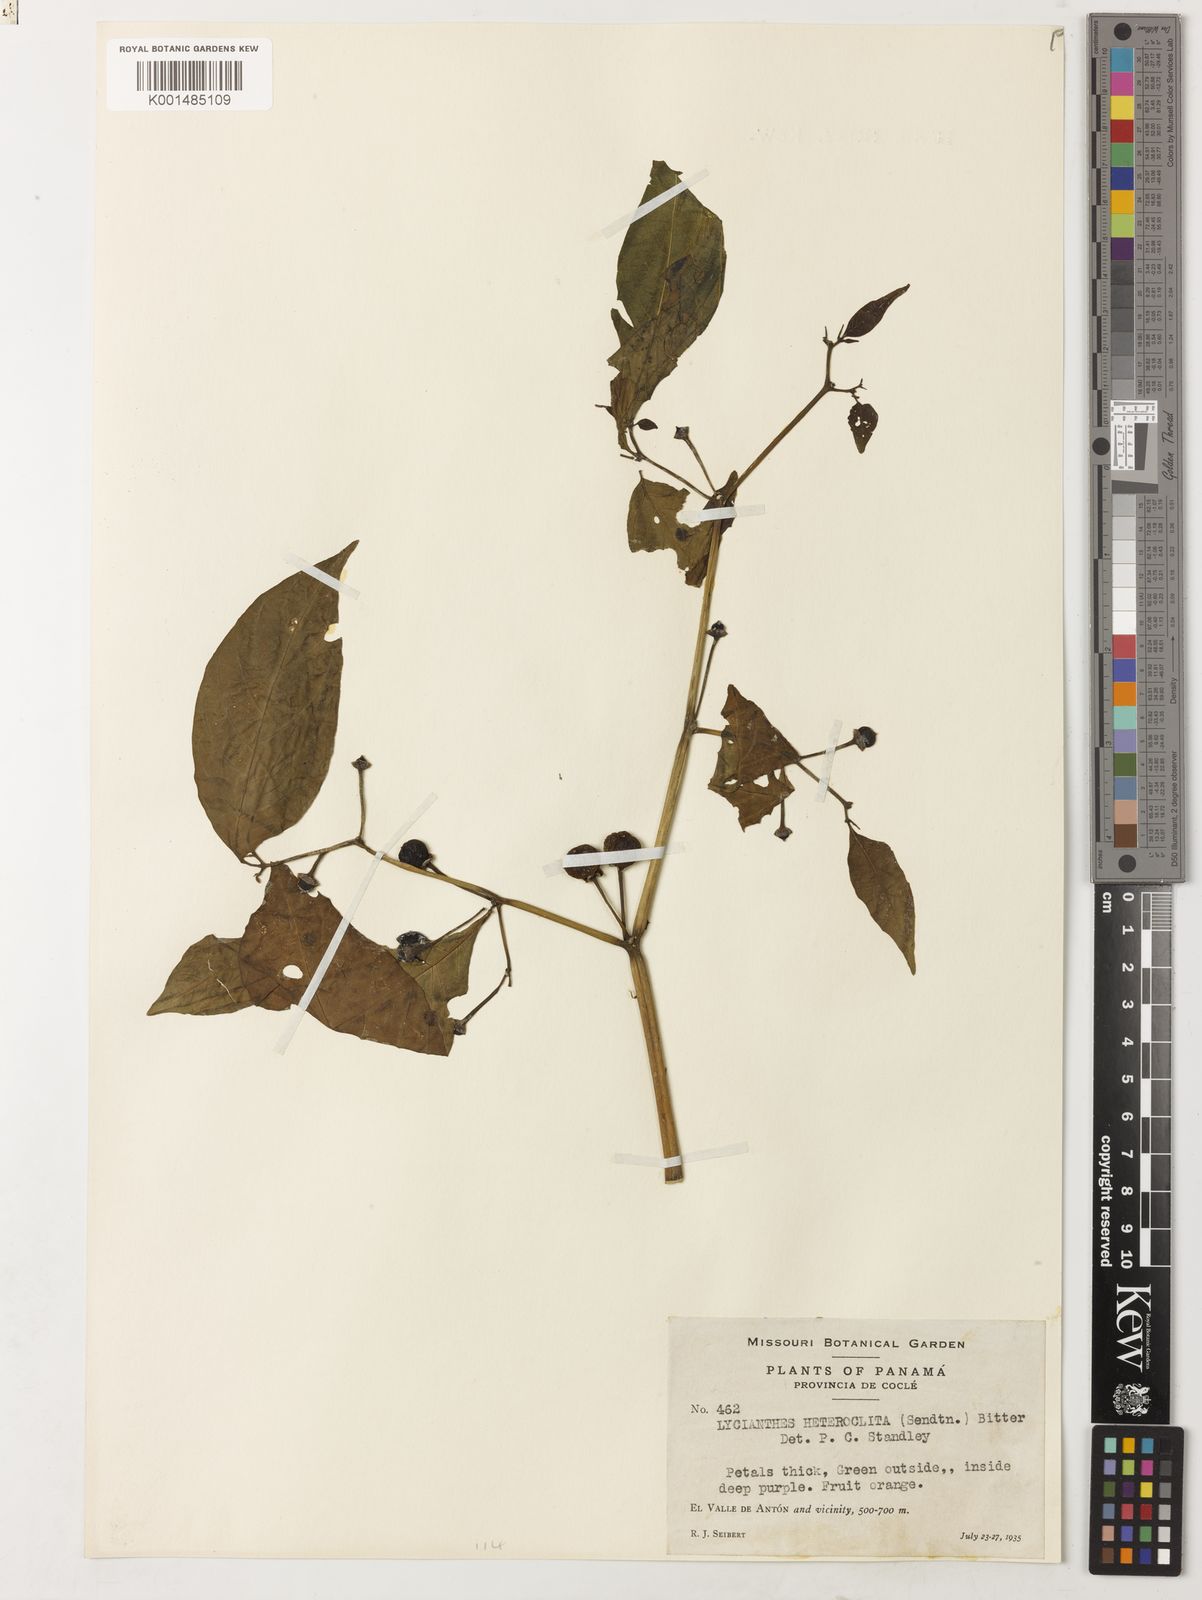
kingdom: Plantae
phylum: Tracheophyta
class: Magnoliopsida
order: Solanales
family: Solanaceae
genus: Lycianthes
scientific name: Lycianthes heteroclita
